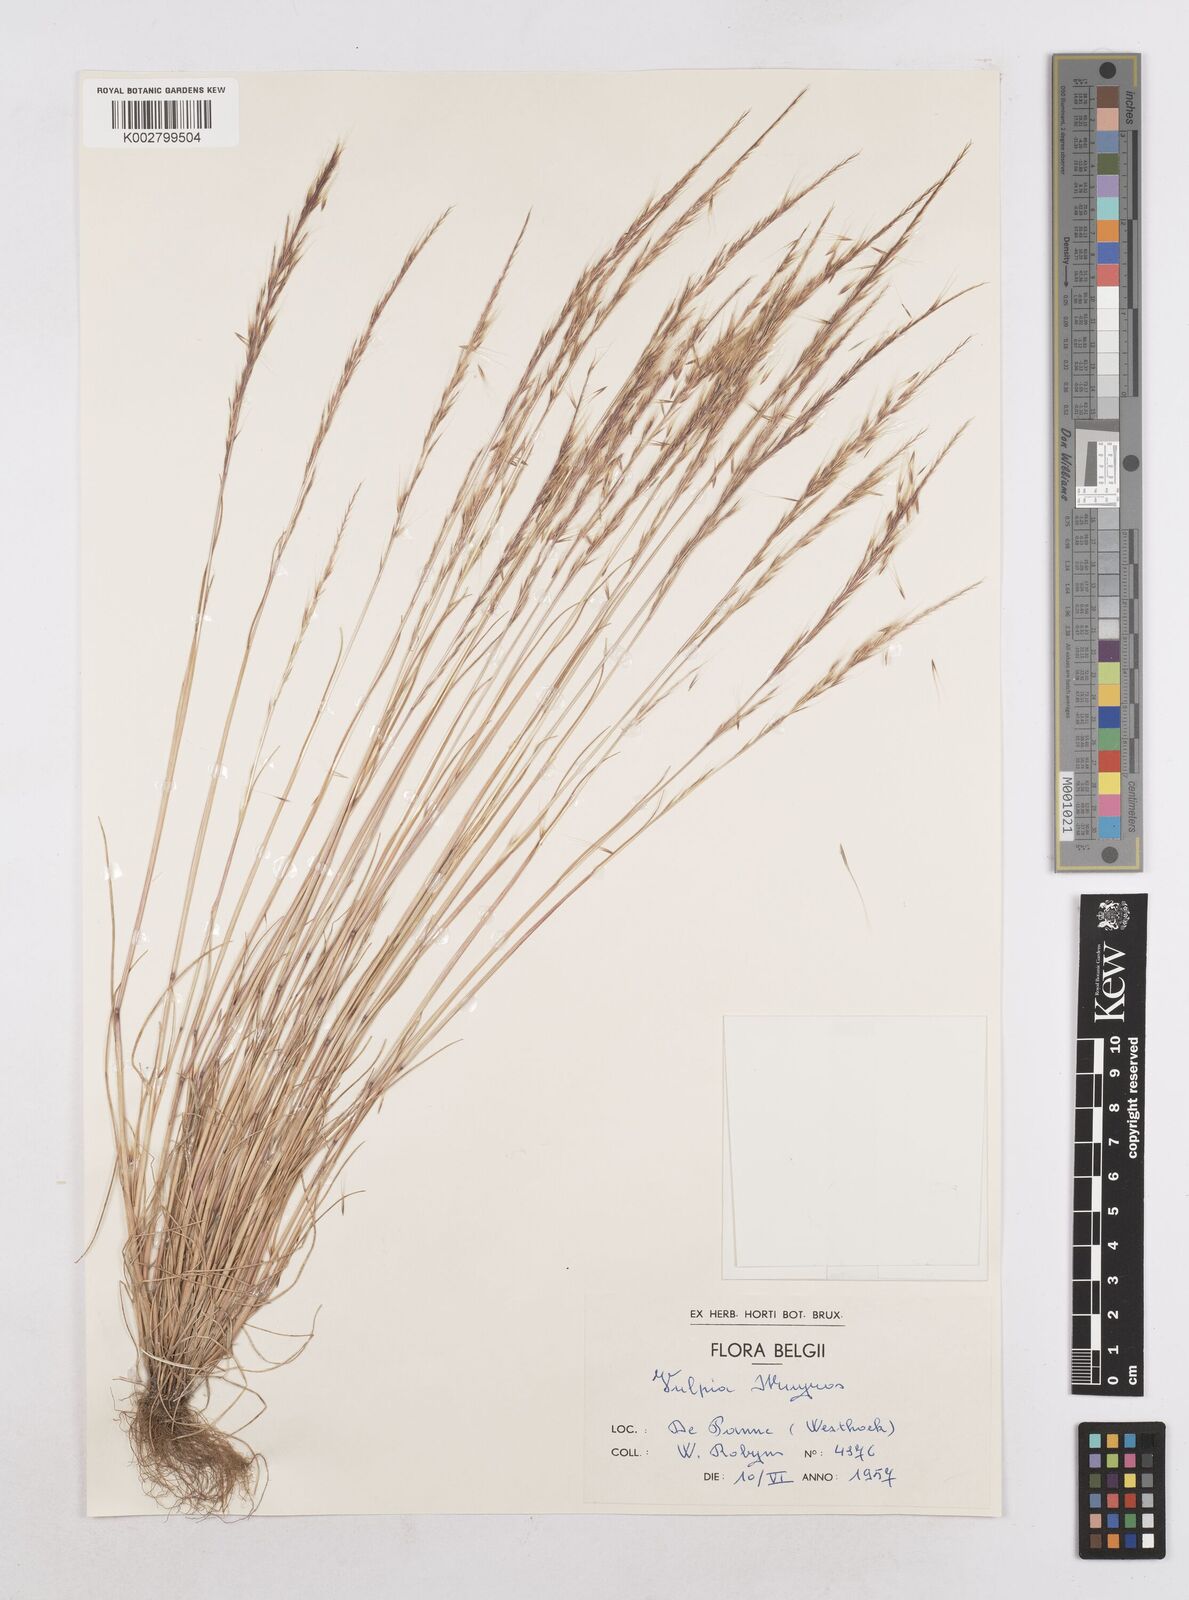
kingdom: Plantae
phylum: Tracheophyta
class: Liliopsida
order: Poales
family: Poaceae
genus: Festuca
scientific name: Festuca myuros
